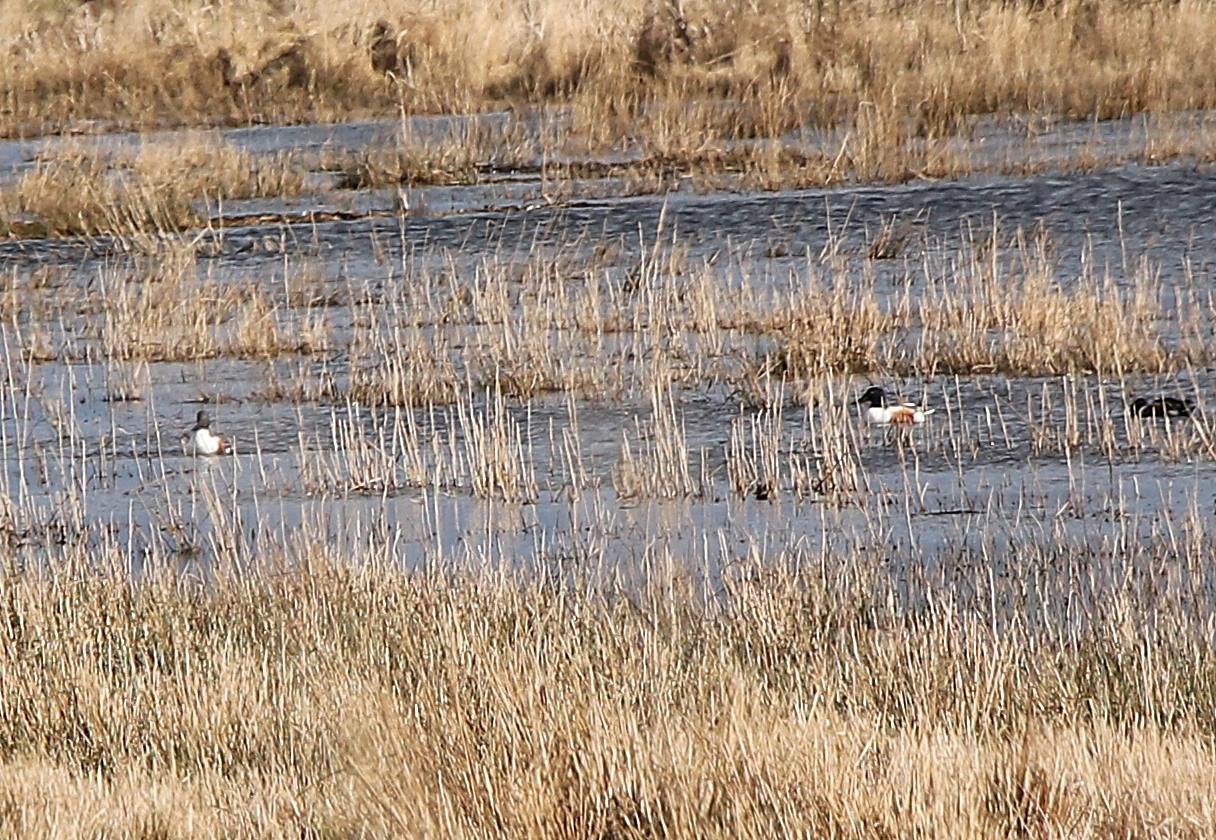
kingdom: Animalia
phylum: Chordata
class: Aves
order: Anseriformes
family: Anatidae
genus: Spatula
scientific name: Spatula clypeata
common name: Skeand
